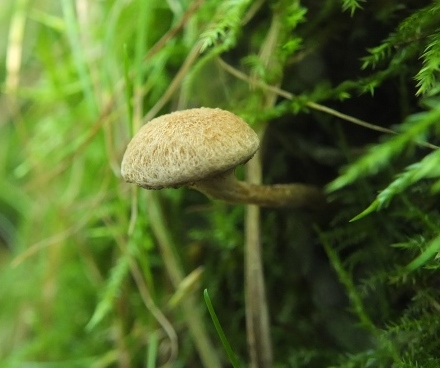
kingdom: Fungi
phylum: Basidiomycota
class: Agaricomycetes
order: Agaricales
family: Inocybaceae
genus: Inocybe
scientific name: Inocybe dulcamara
